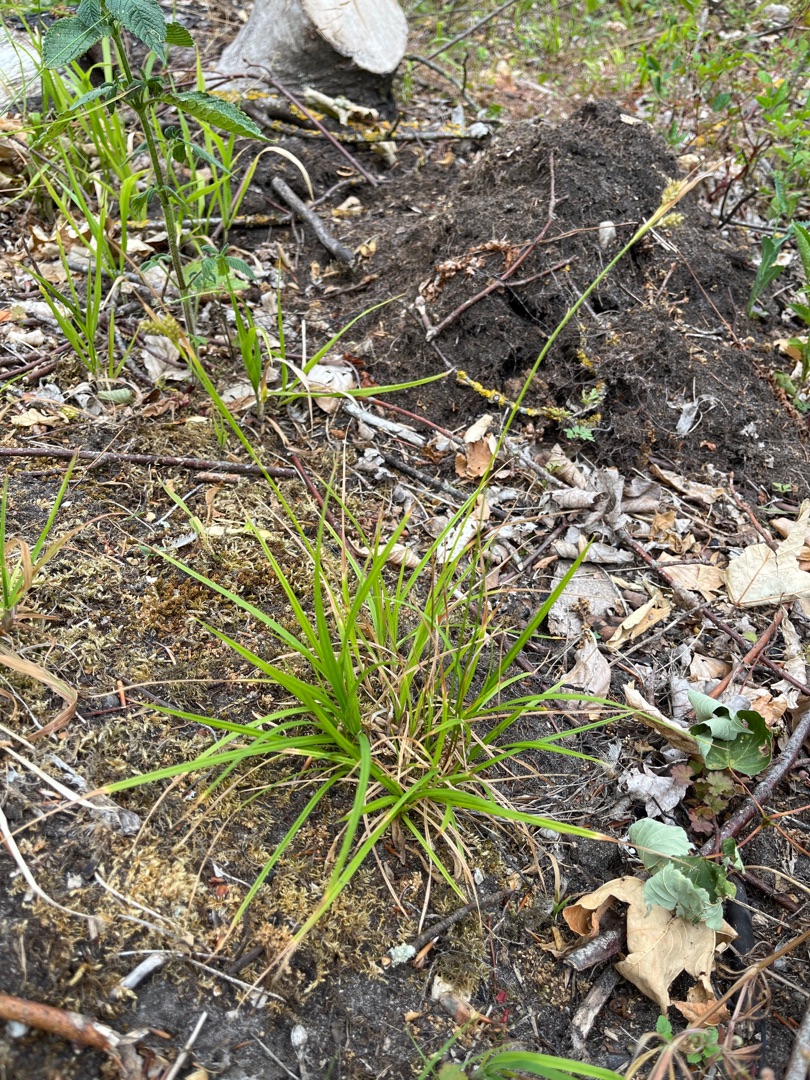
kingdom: Plantae
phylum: Tracheophyta
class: Liliopsida
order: Poales
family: Cyperaceae
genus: Carex
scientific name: Carex pallescens
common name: Bleg star
